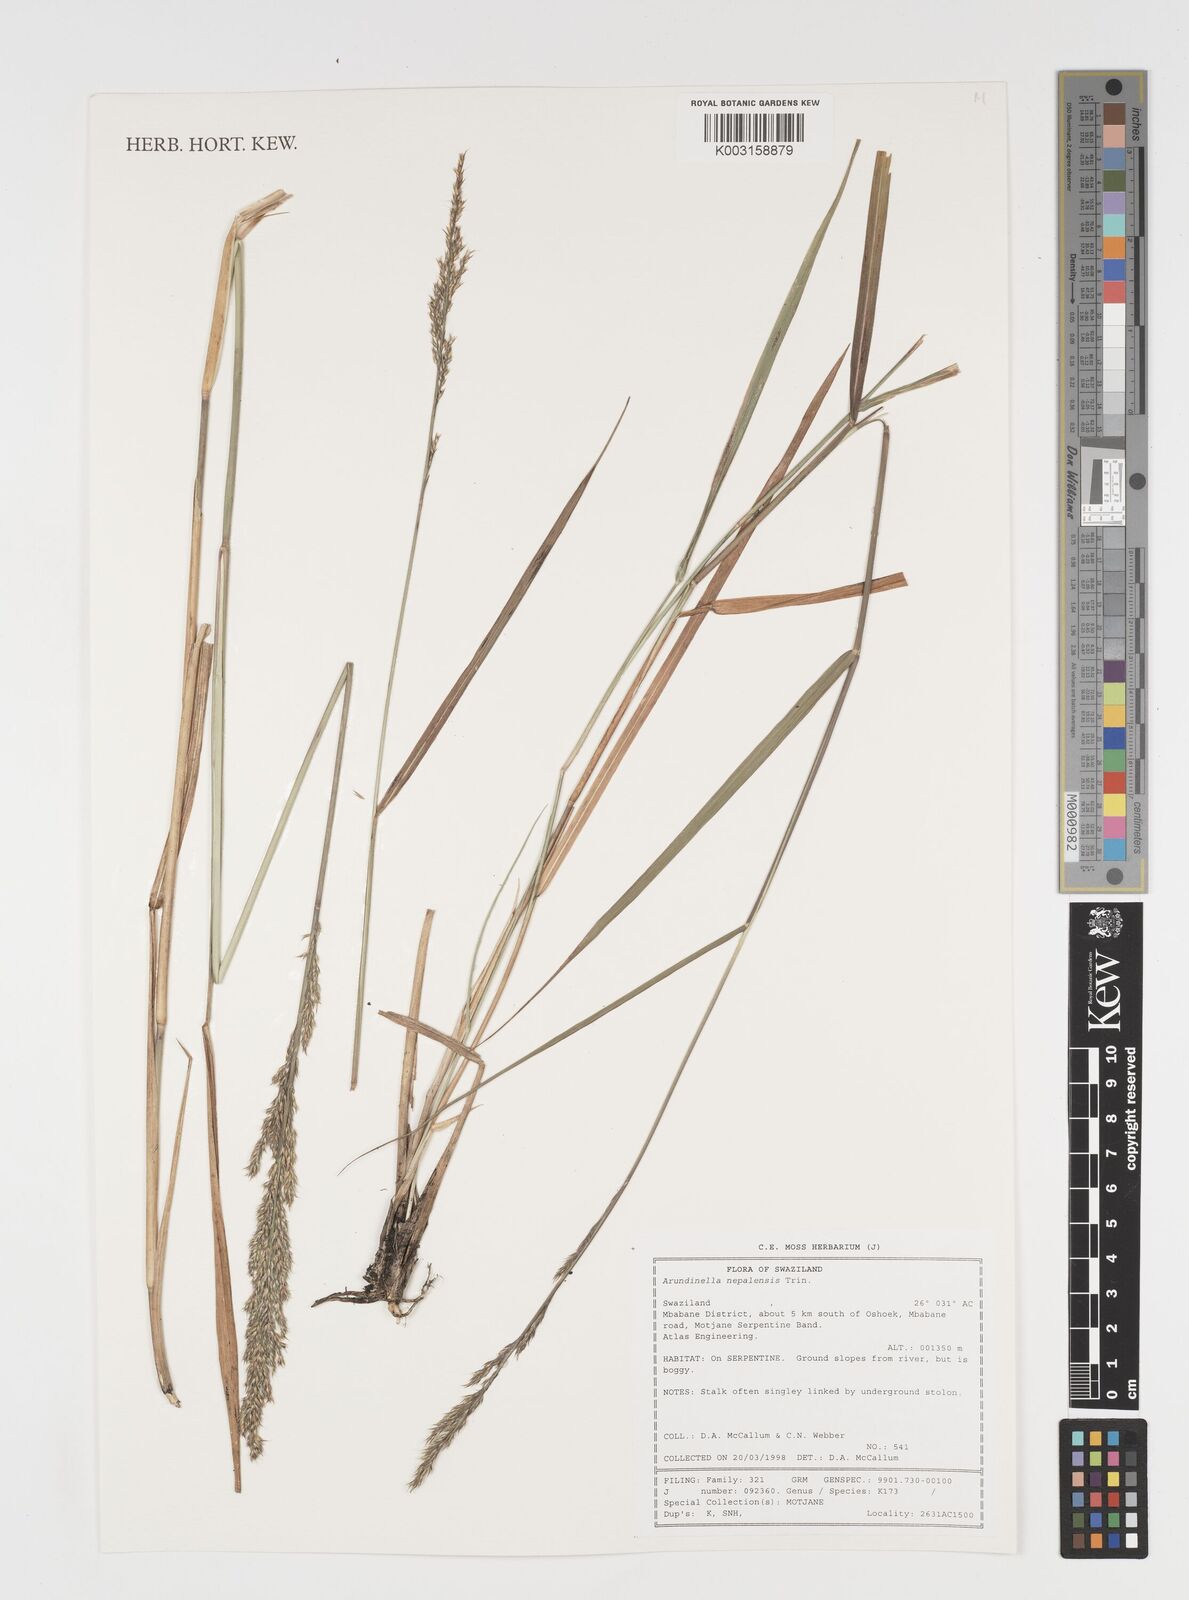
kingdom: Plantae
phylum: Tracheophyta
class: Liliopsida
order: Poales
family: Poaceae
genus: Arundinella
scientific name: Arundinella nepalensis
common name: Reed grass
